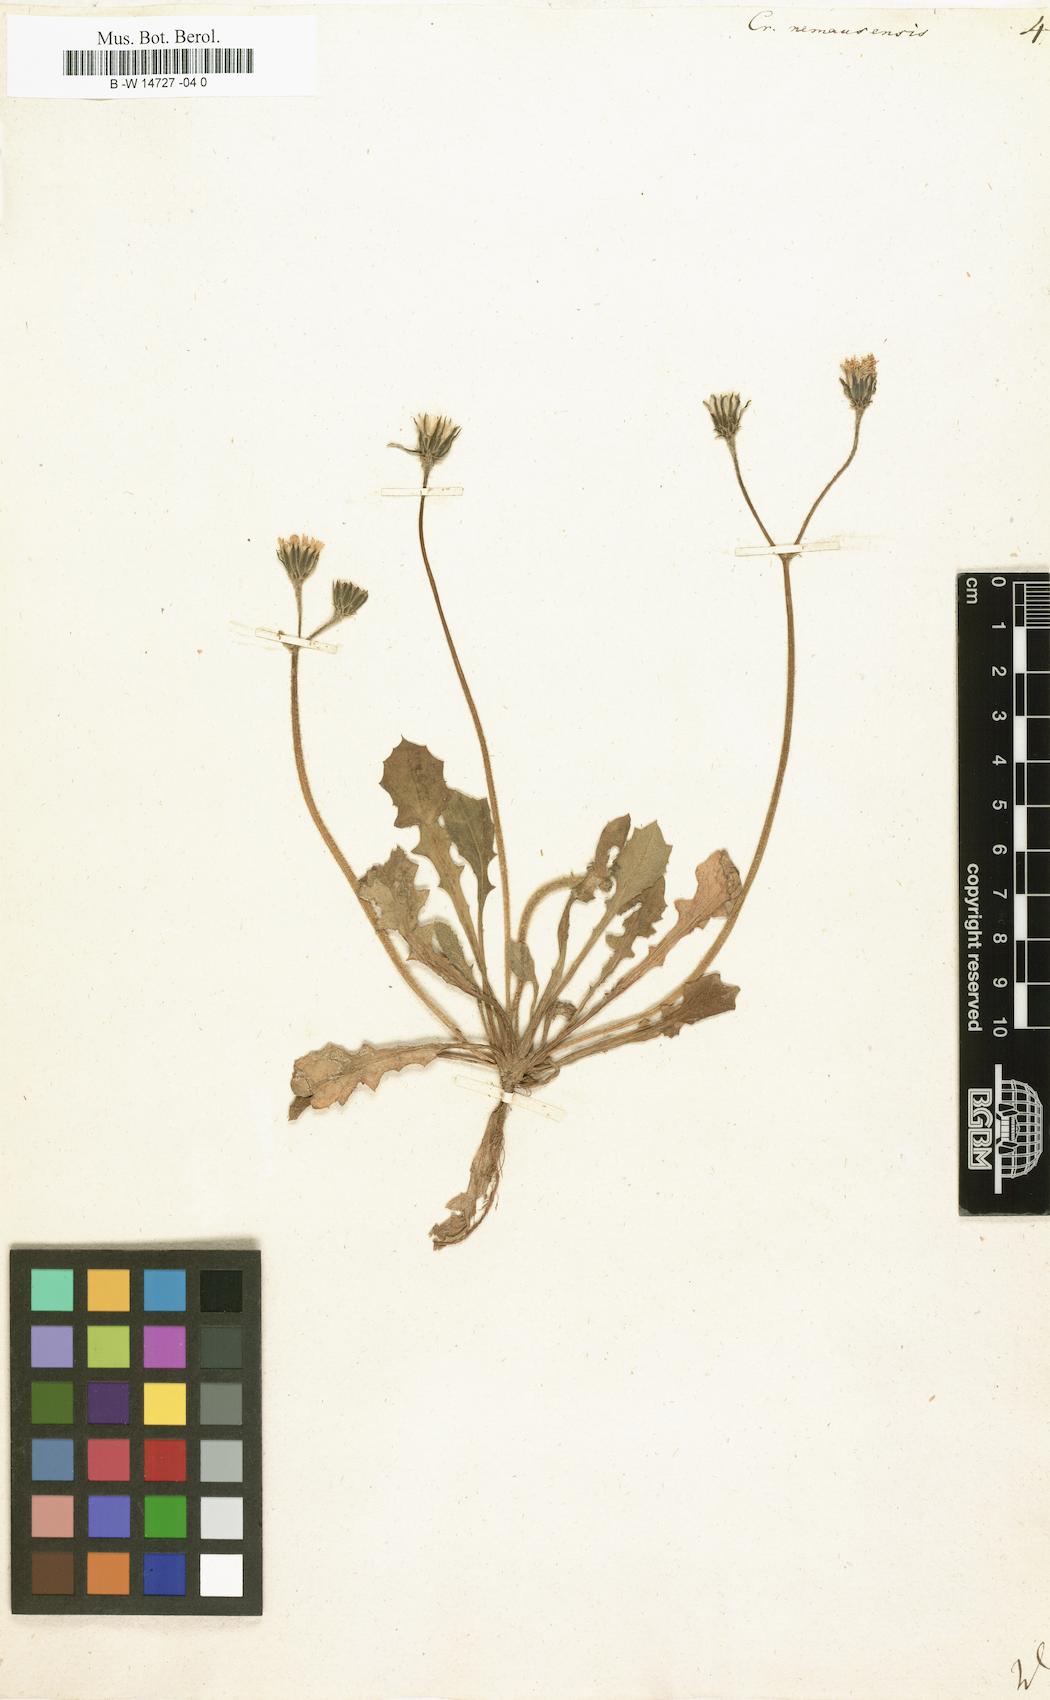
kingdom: Plantae
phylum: Tracheophyta
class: Magnoliopsida
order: Asterales
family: Asteraceae
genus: Crepis
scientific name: Crepis nemausensis
